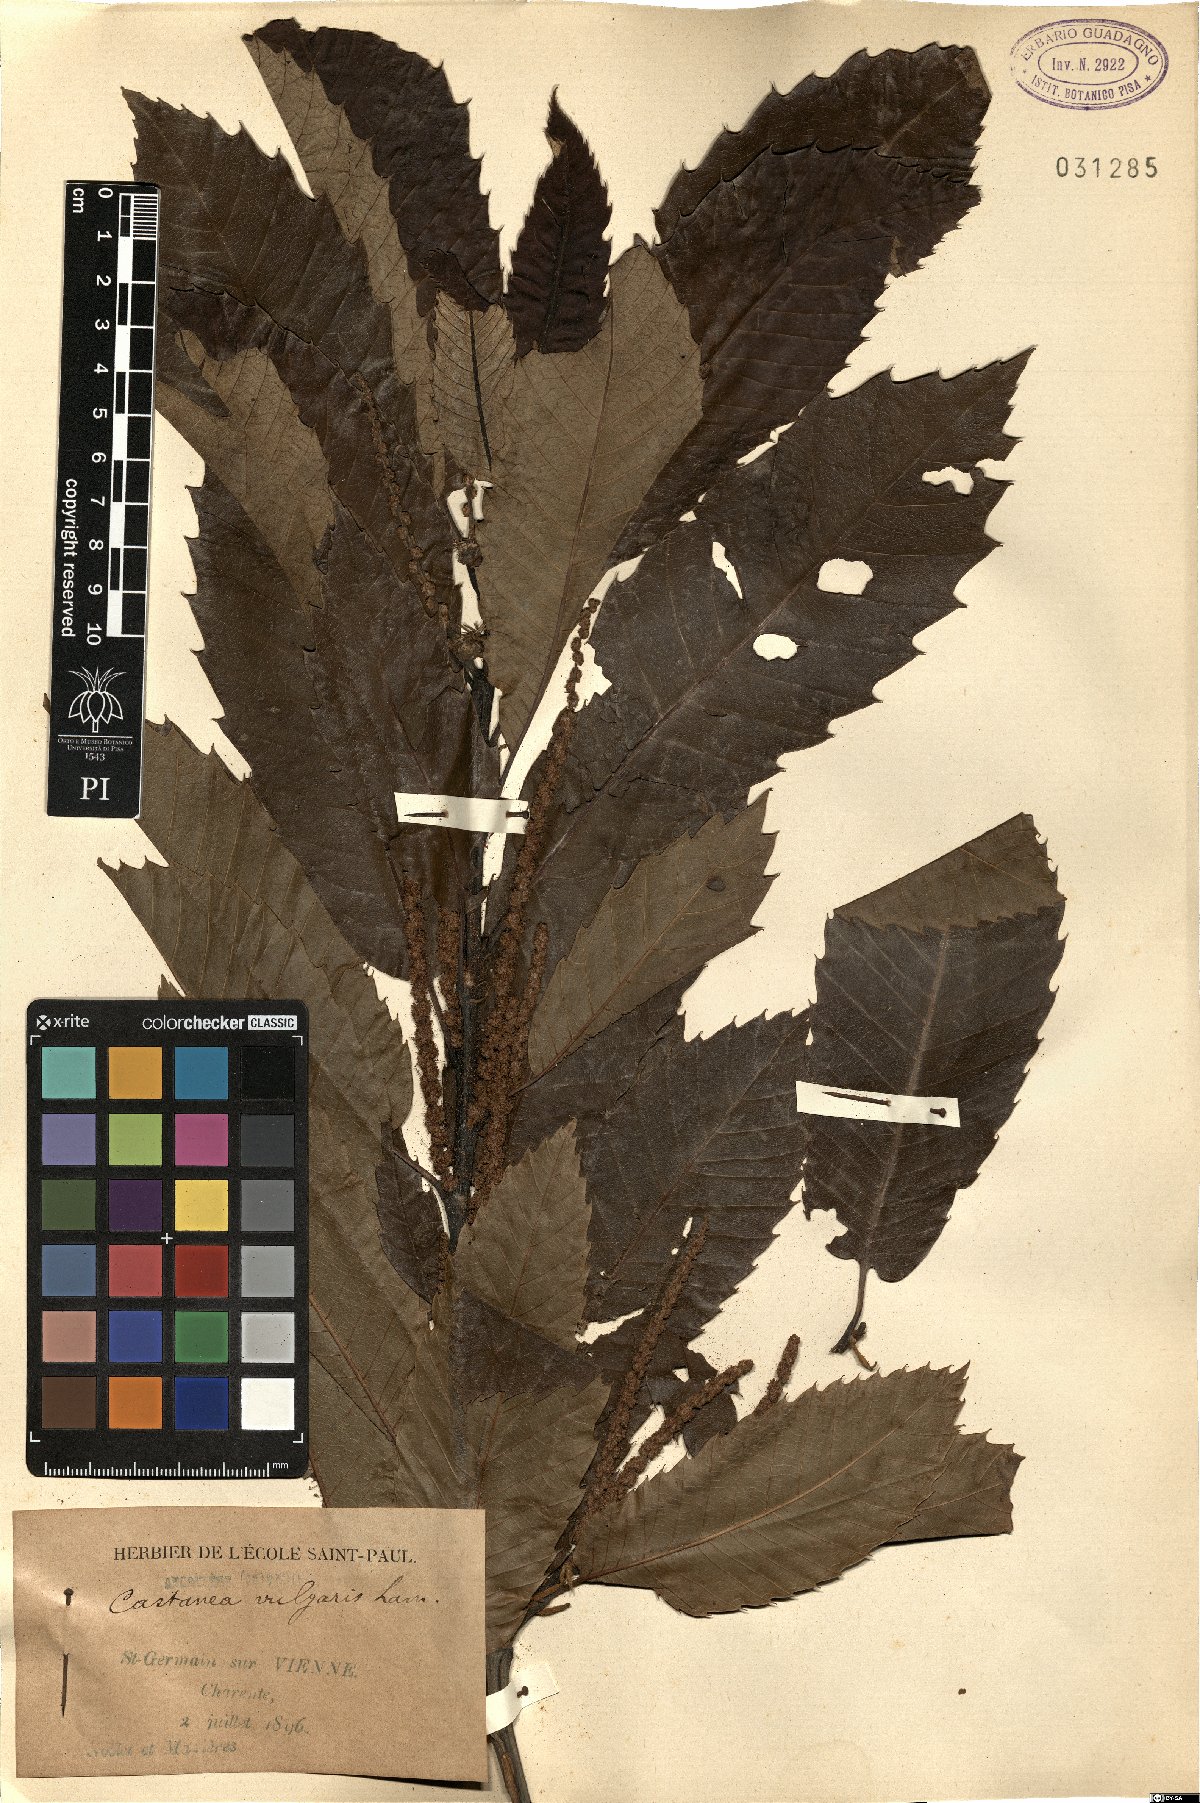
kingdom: Plantae
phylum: Tracheophyta
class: Magnoliopsida
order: Fagales
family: Fagaceae
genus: Castanea
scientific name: Castanea sativa
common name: Sweet chestnut
